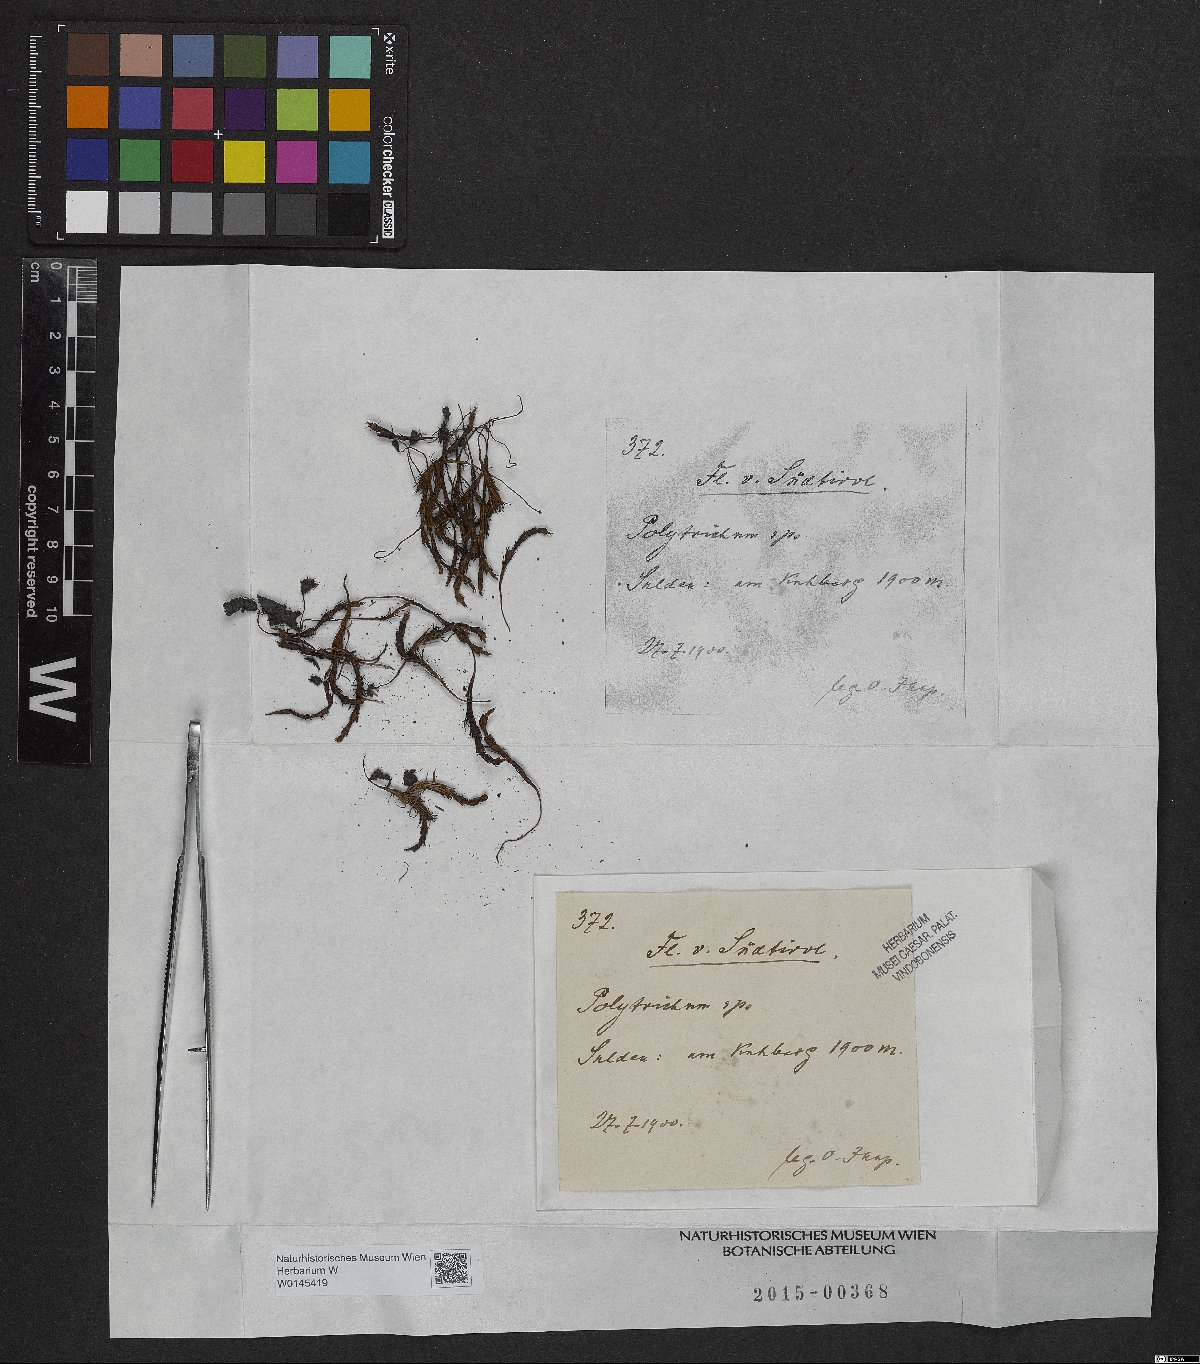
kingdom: Plantae
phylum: Bryophyta
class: Polytrichopsida
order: Polytrichales
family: Polytrichaceae
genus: Polytrichum
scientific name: Polytrichum
